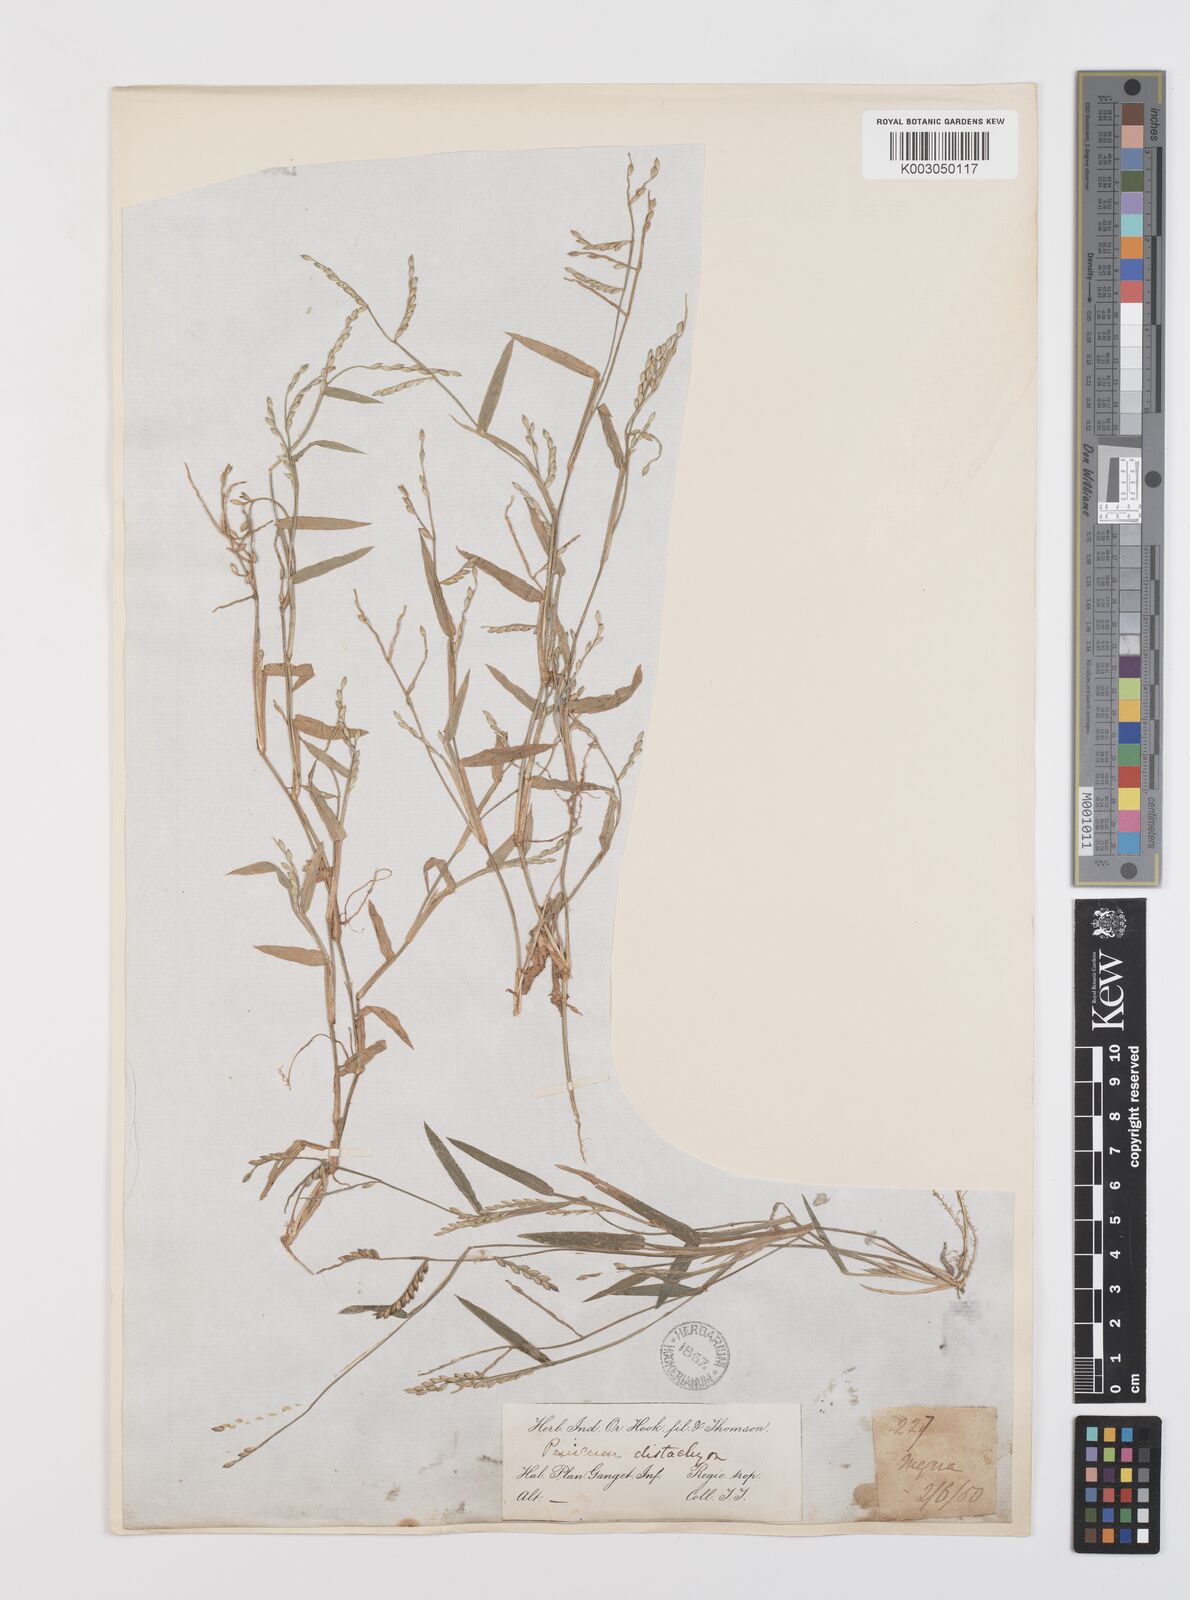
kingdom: Plantae
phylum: Tracheophyta
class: Liliopsida
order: Poales
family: Poaceae
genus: Urochloa
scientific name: Urochloa subquadripara
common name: Armgrass millet
